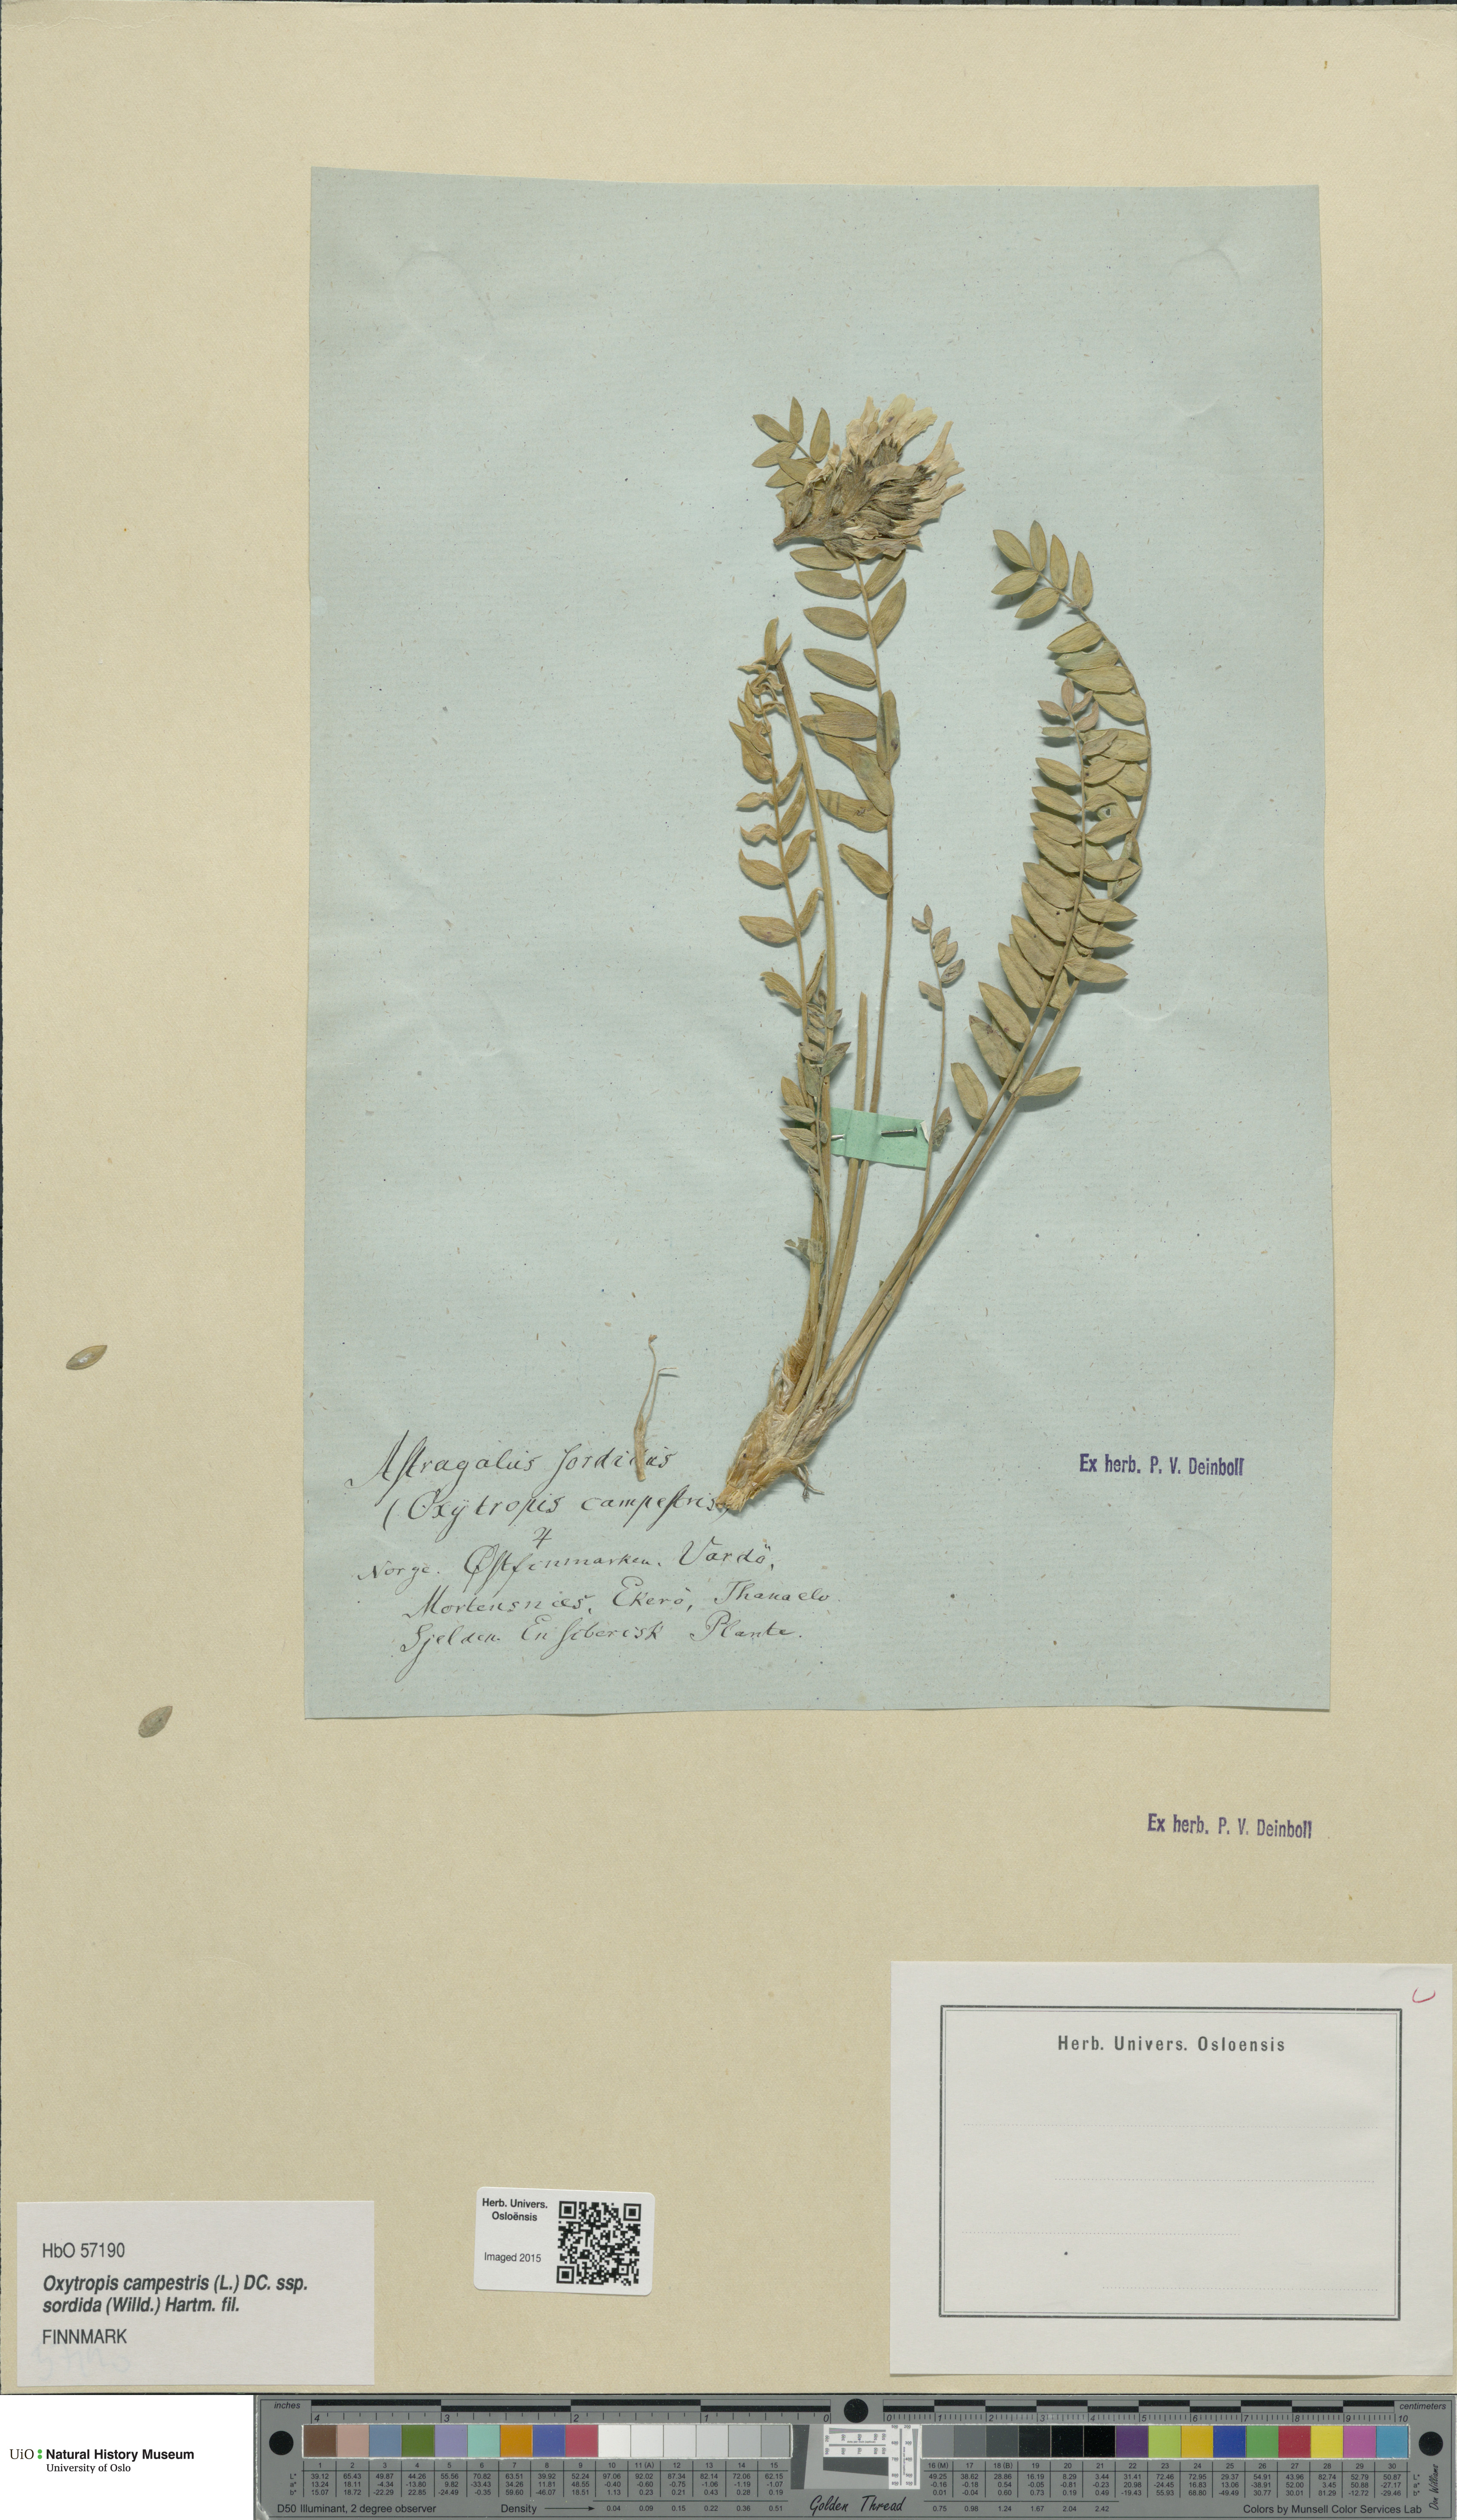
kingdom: Plantae
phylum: Tracheophyta
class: Magnoliopsida
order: Fabales
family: Fabaceae
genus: Oxytropis
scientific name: Oxytropis sordida
